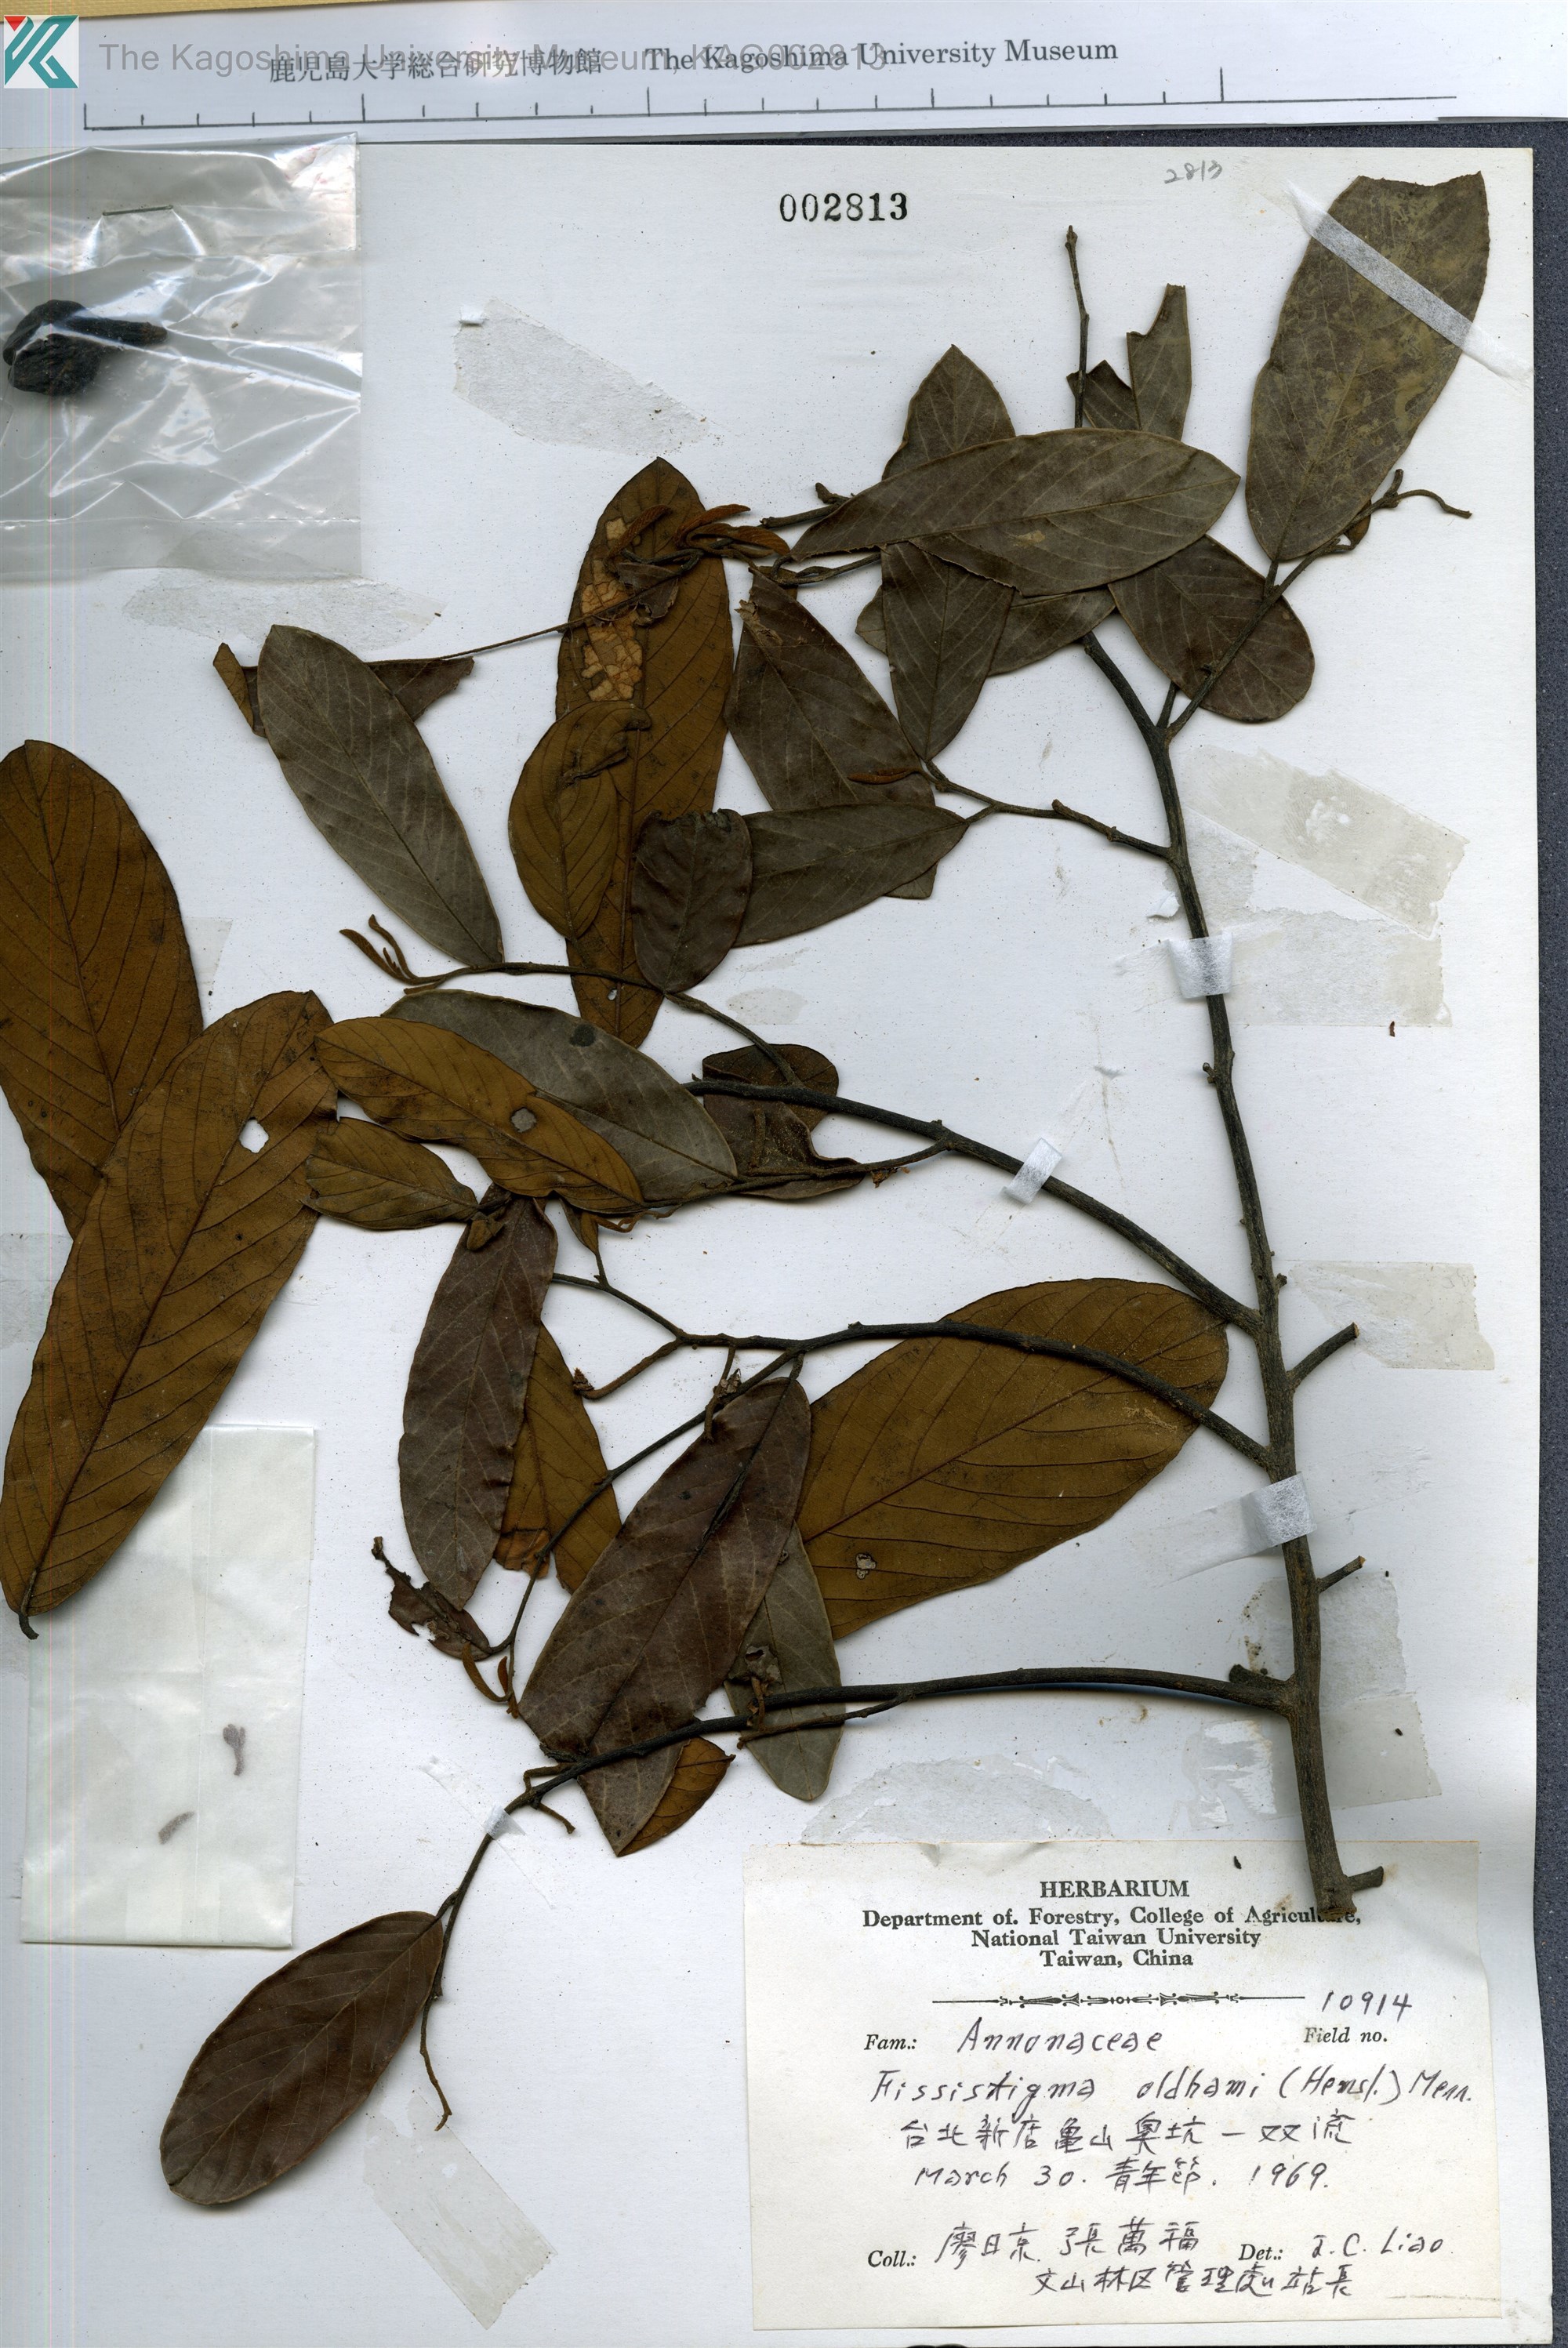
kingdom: Plantae
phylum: Tracheophyta
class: Magnoliopsida
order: Magnoliales
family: Annonaceae
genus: Fissistigma
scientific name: Fissistigma oldhamii
